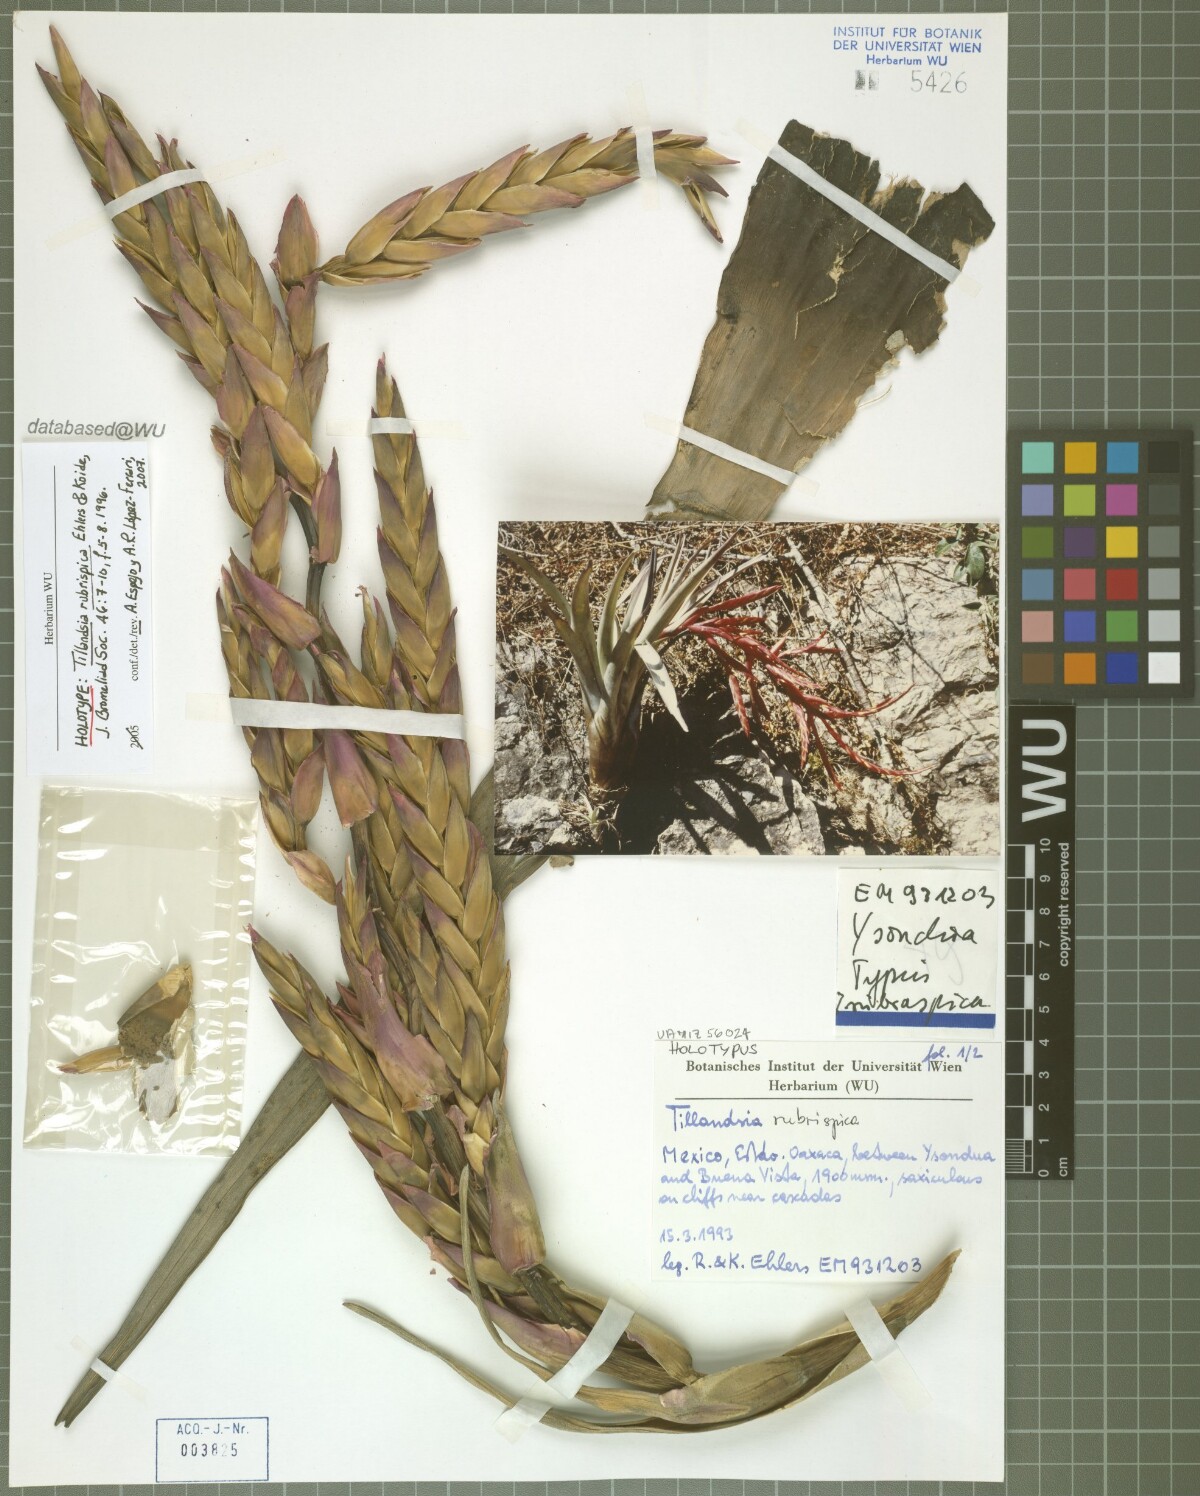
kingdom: Plantae
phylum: Tracheophyta
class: Liliopsida
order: Poales
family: Bromeliaceae
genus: Tillandsia
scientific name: Tillandsia rubrispica
